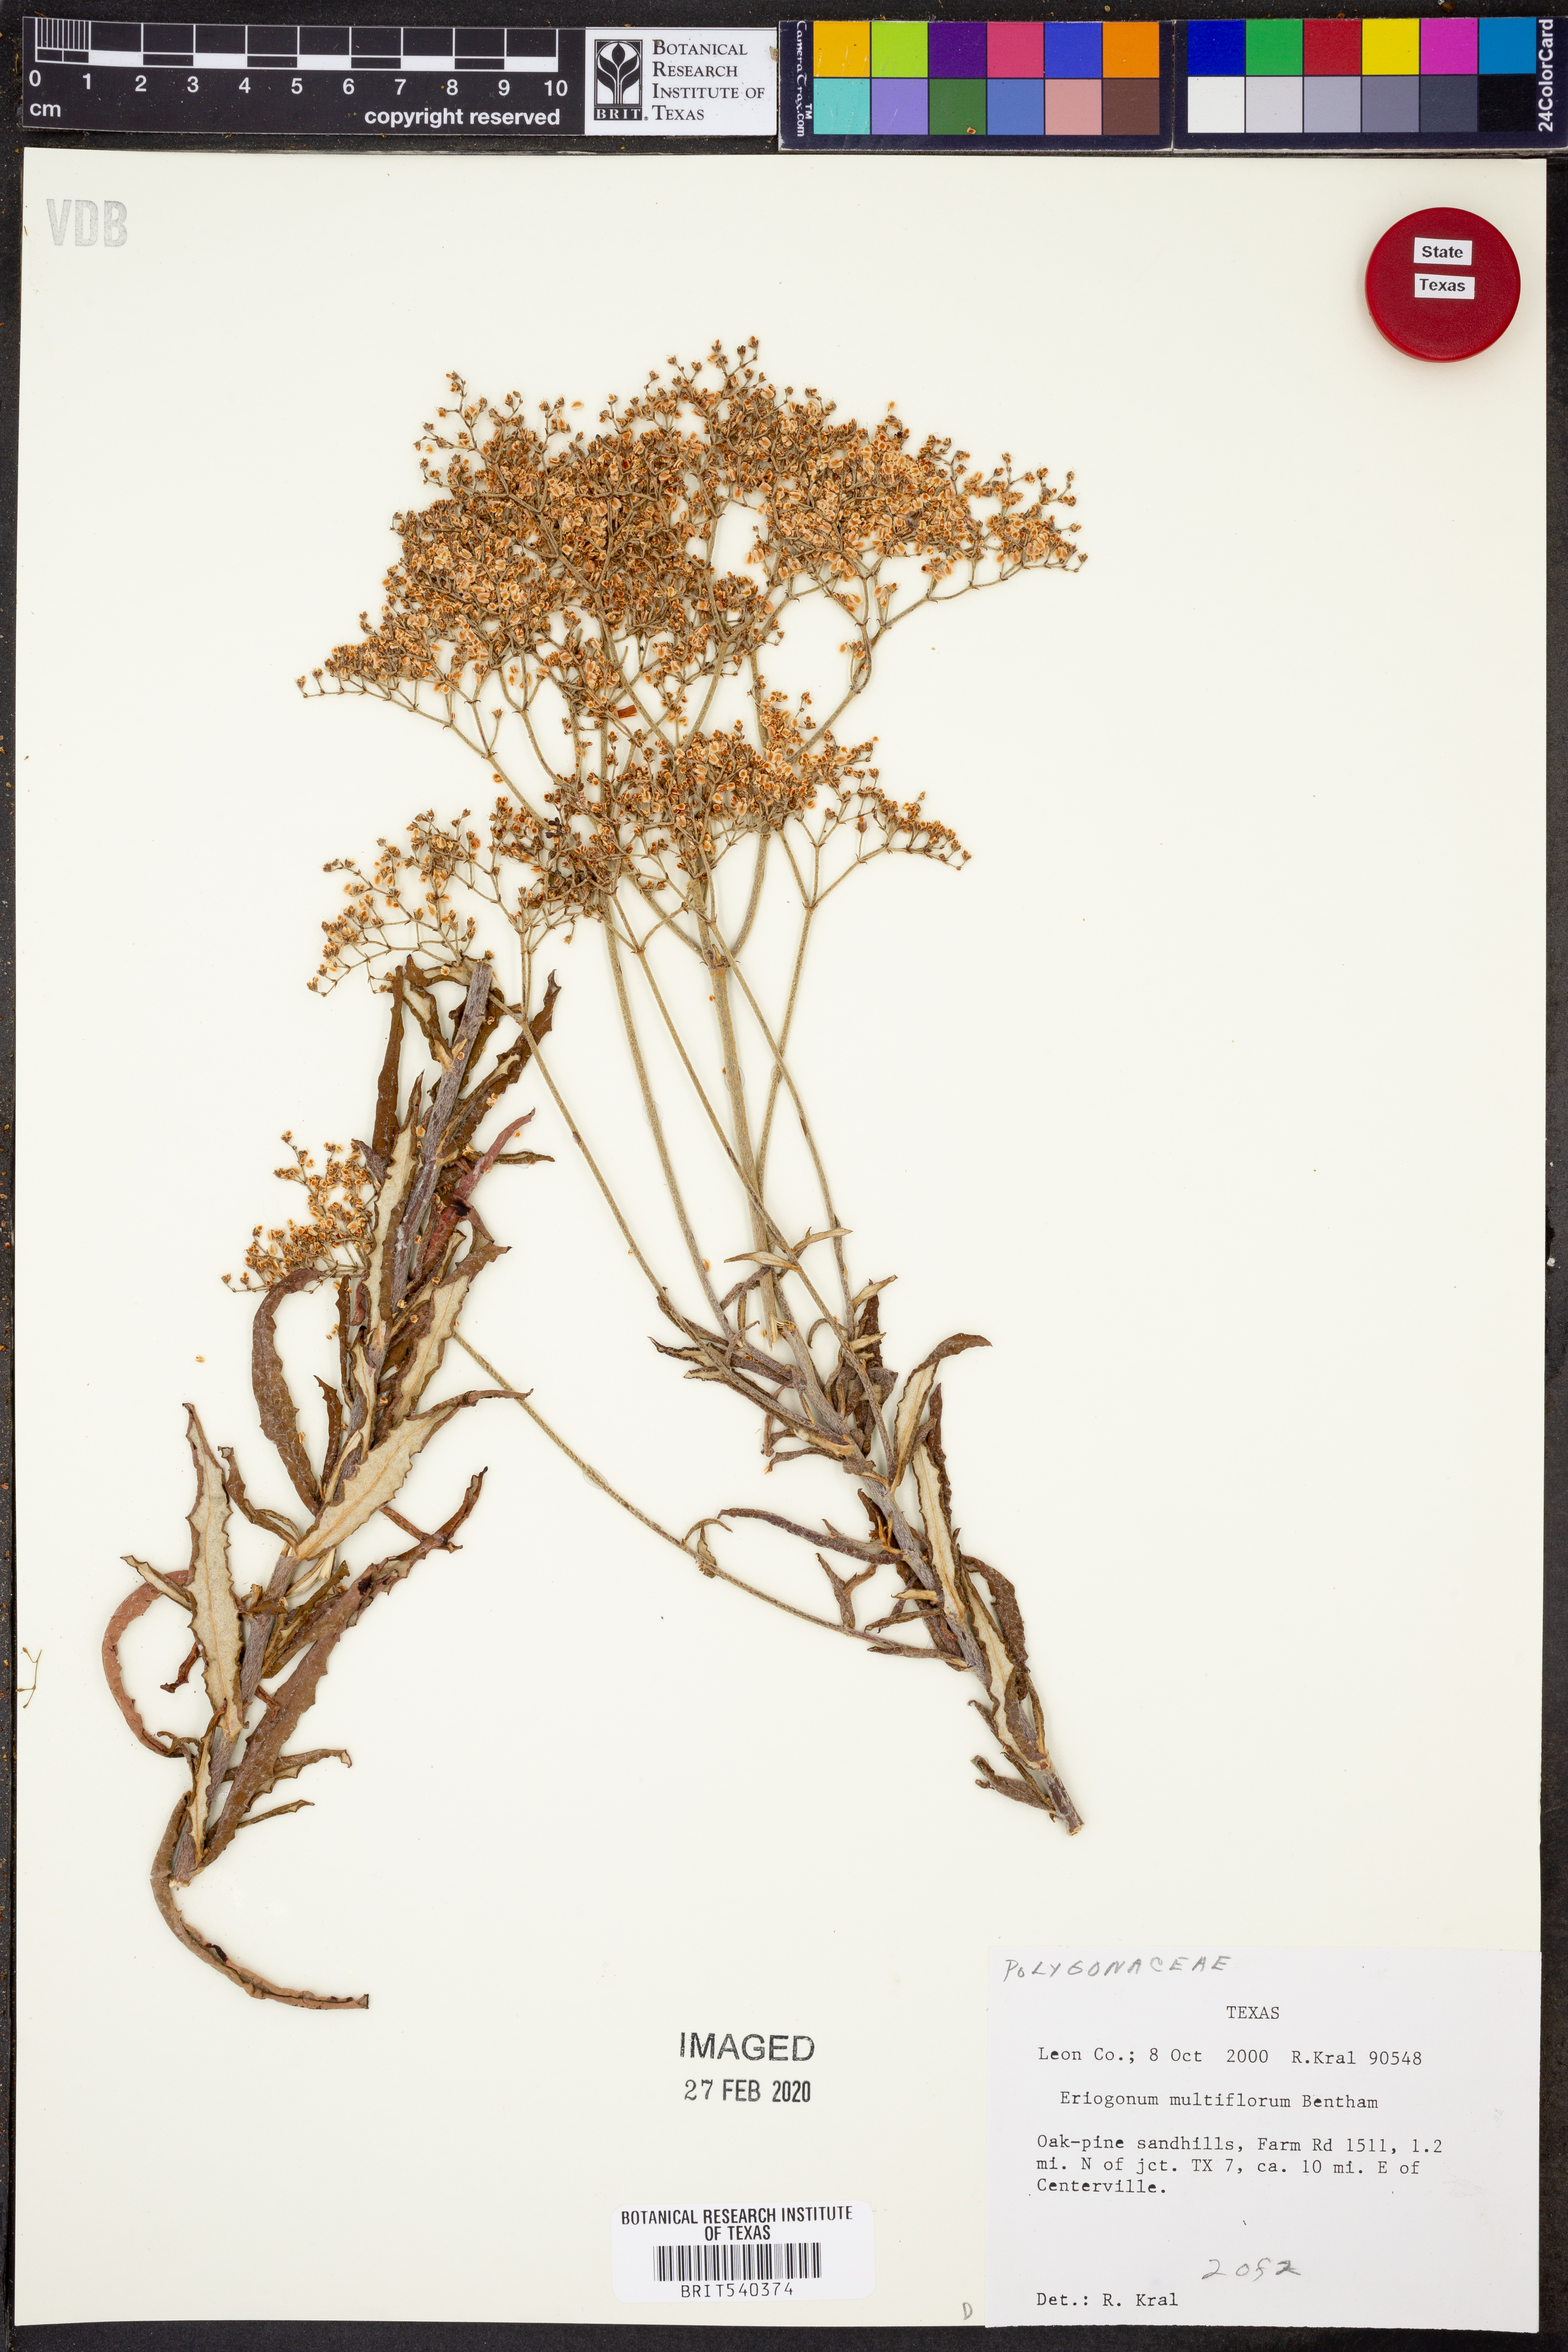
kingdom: Plantae
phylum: Tracheophyta
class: Magnoliopsida
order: Caryophyllales
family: Polygonaceae
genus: Eriogonum
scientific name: Eriogonum multiflorum
